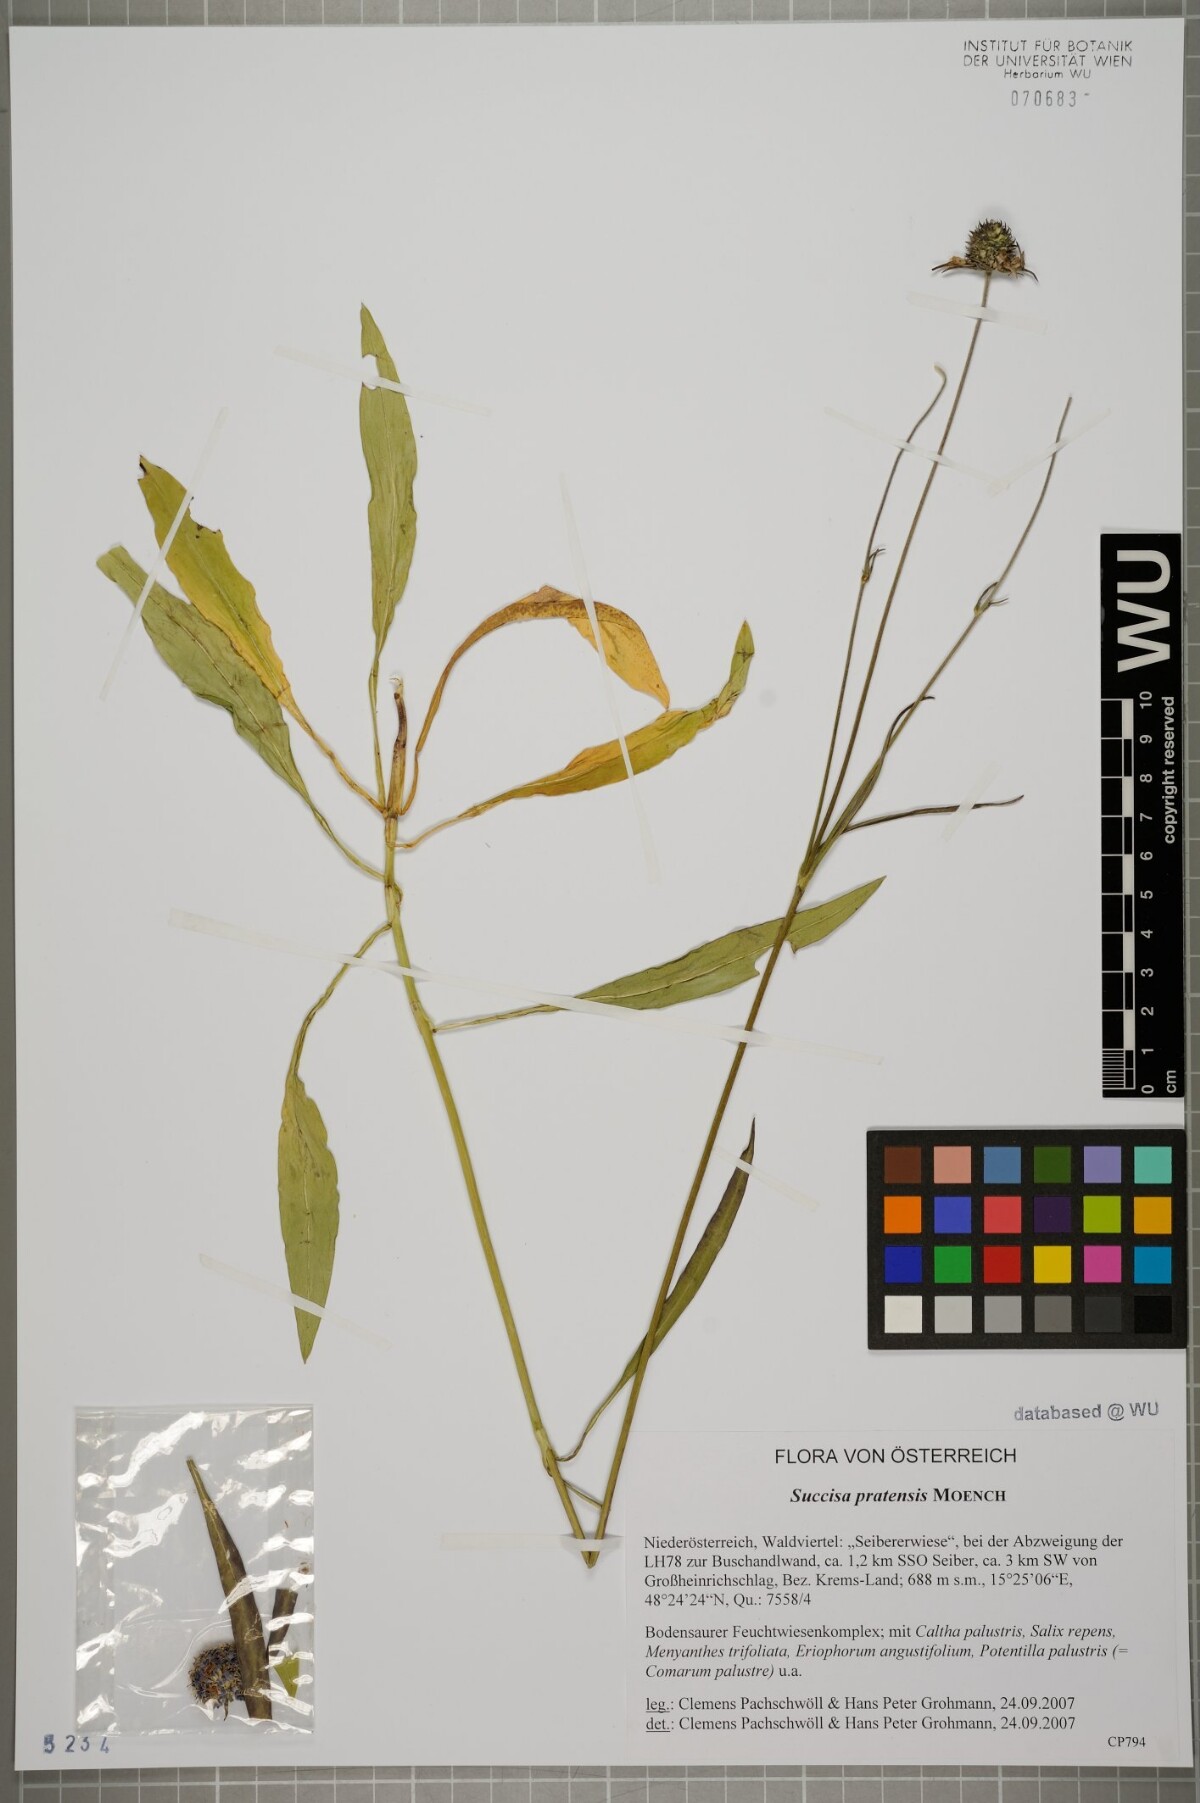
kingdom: Plantae
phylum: Tracheophyta
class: Magnoliopsida
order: Dipsacales
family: Caprifoliaceae
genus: Succisa
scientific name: Succisa pratensis
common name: Devil's-bit
